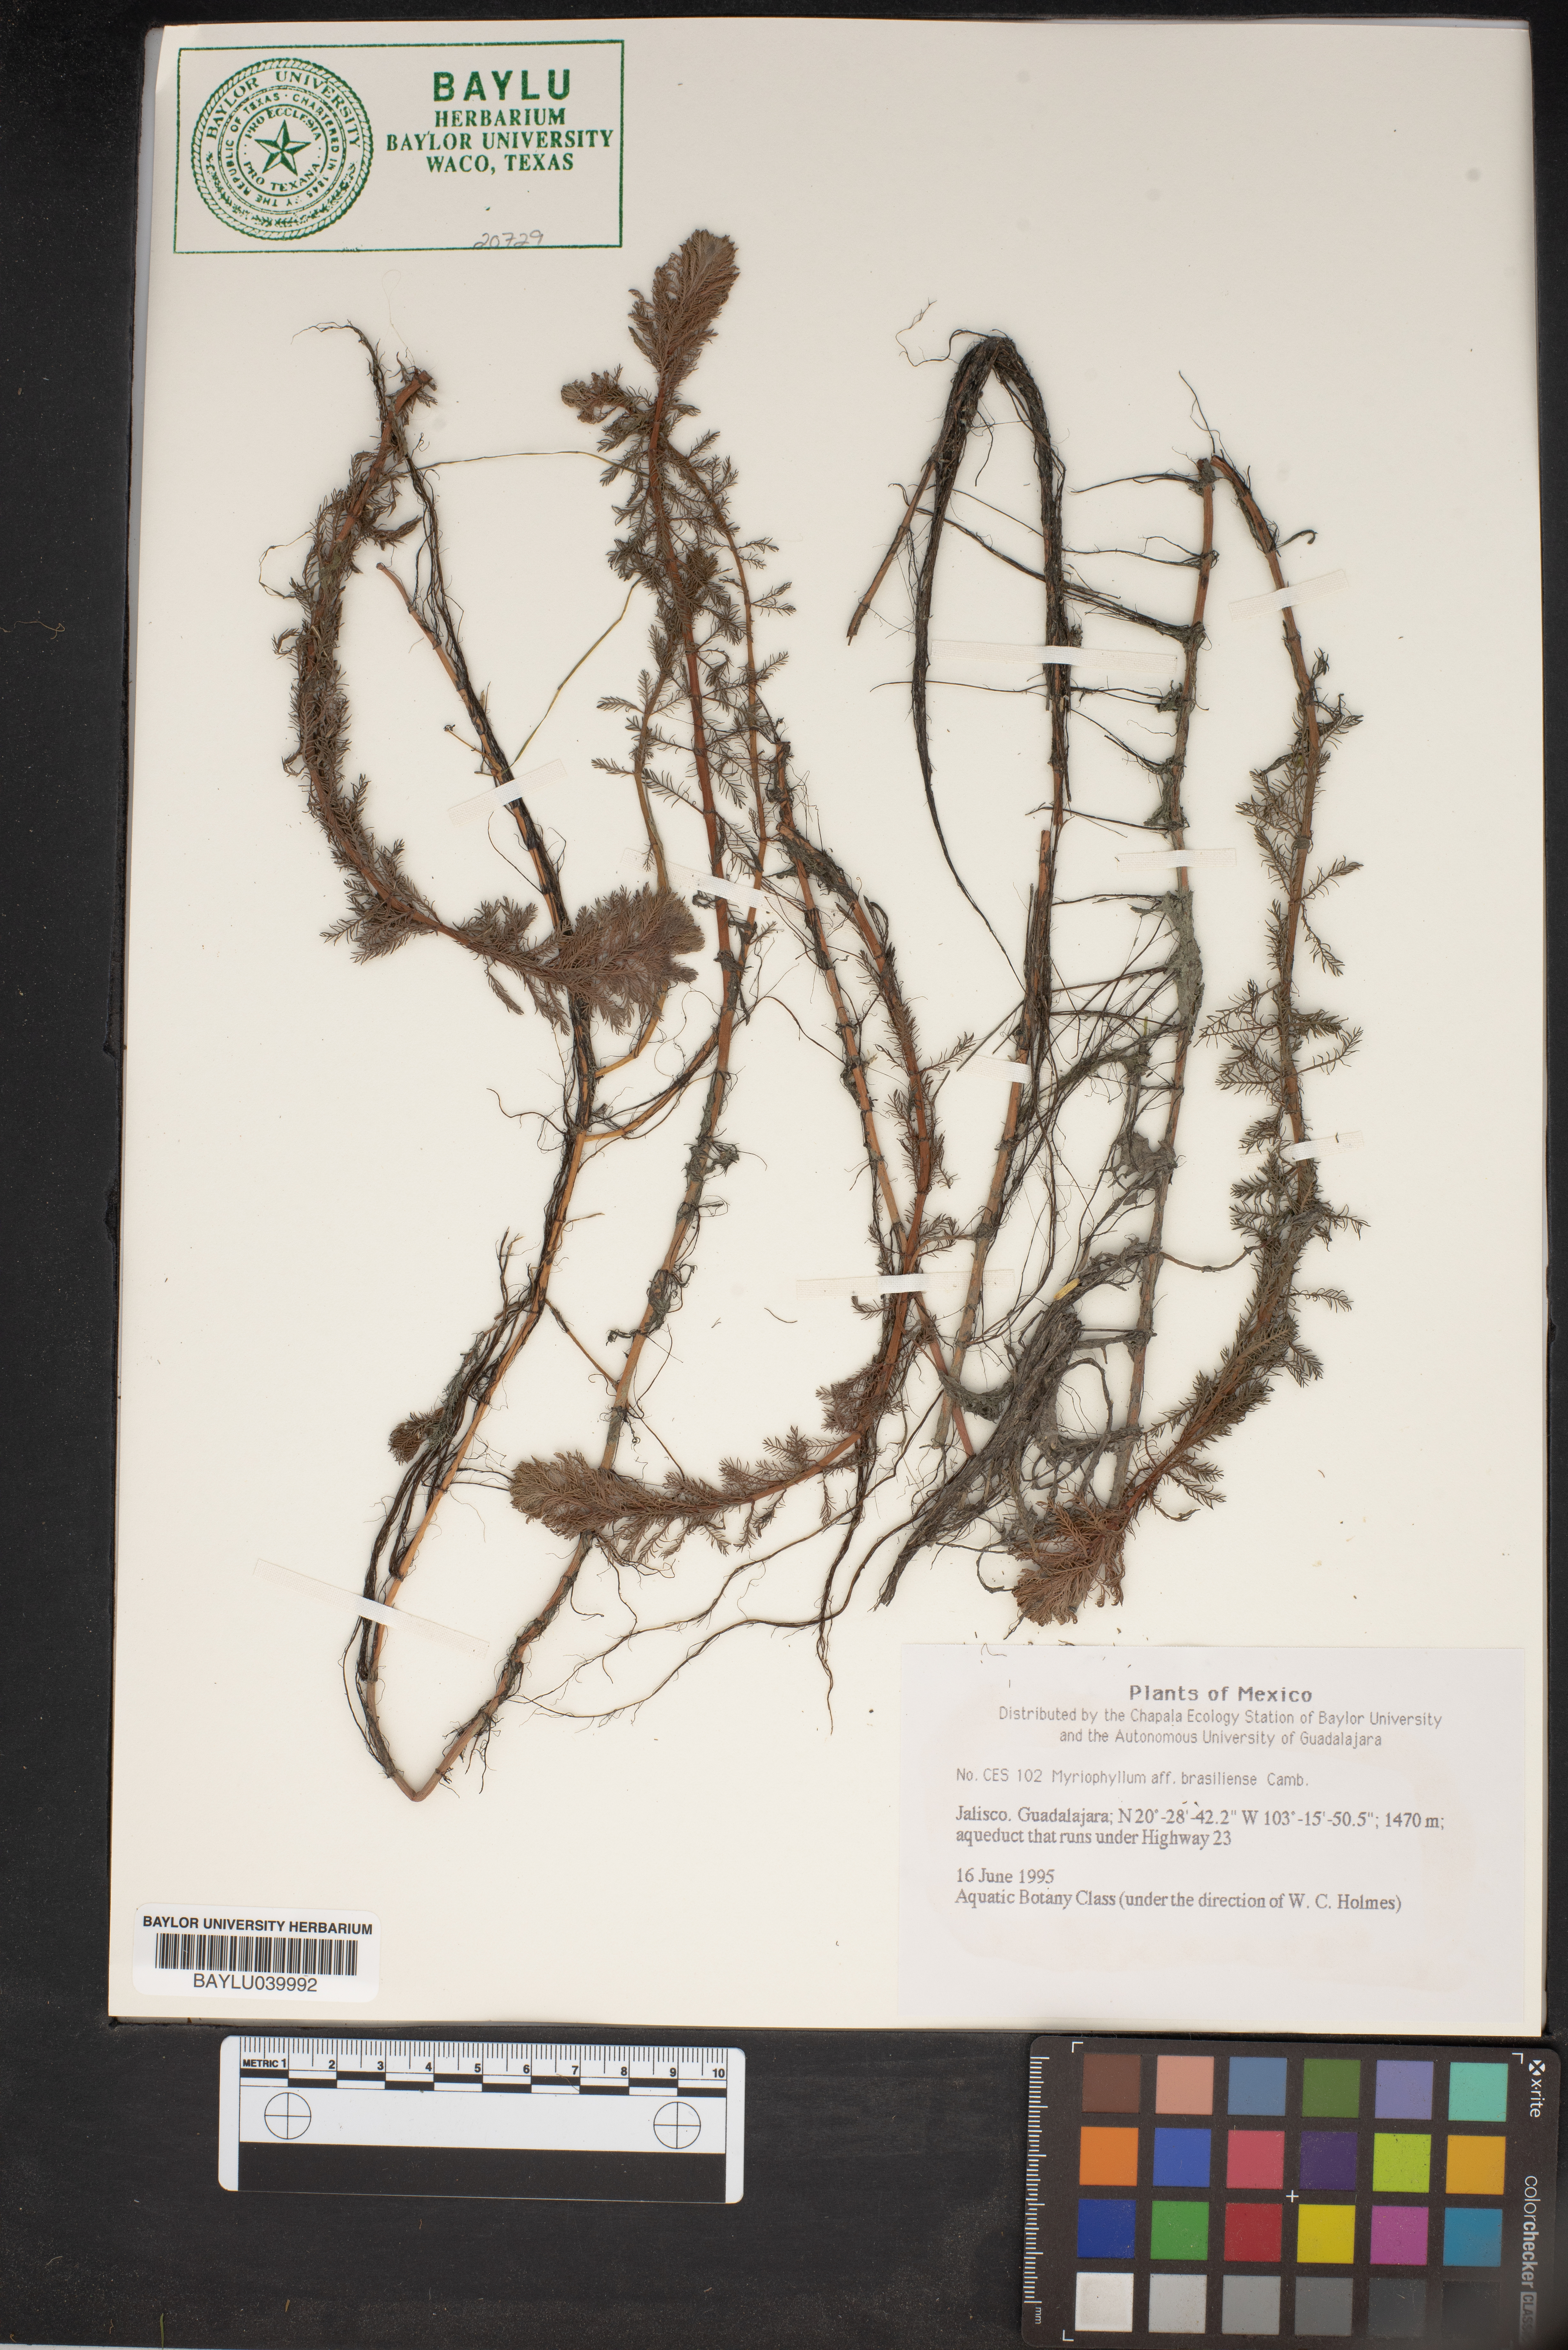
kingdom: Plantae
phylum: Tracheophyta
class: Magnoliopsida
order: Saxifragales
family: Haloragaceae
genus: Myriophyllum
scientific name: Myriophyllum aquaticum
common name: Parrot's feather
